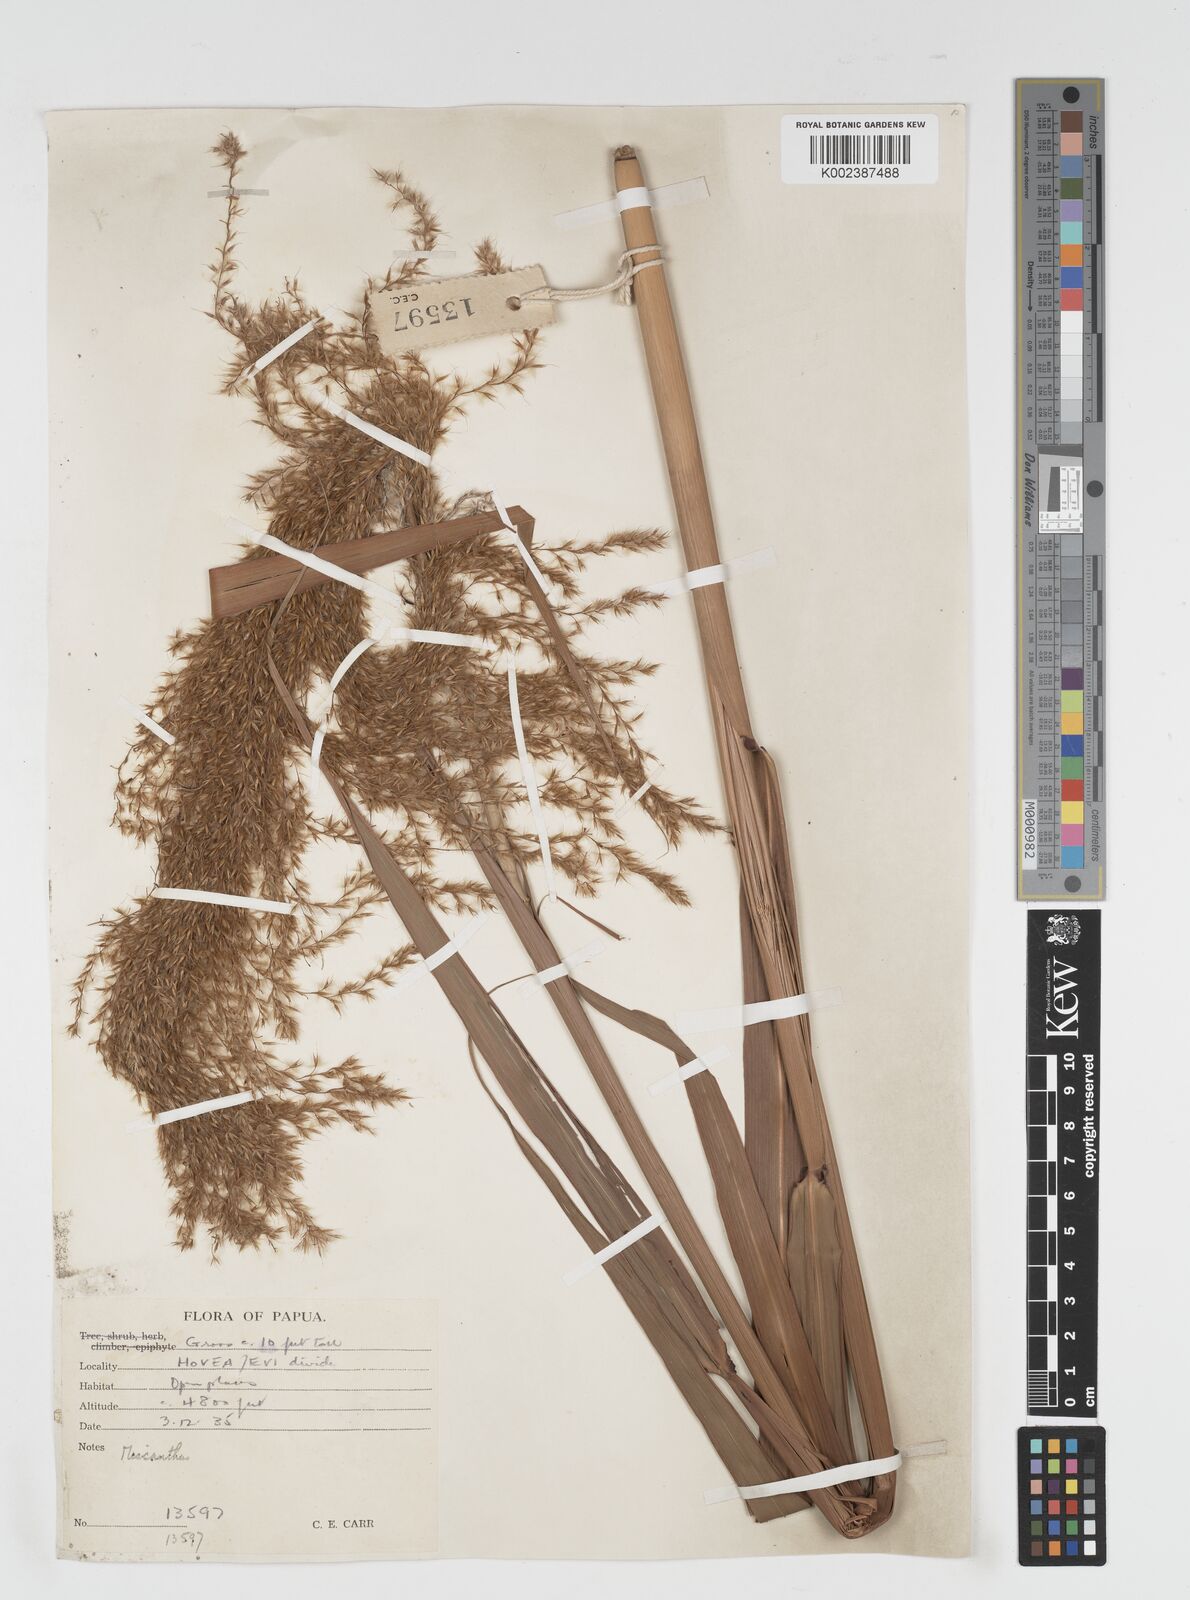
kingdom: Plantae
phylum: Tracheophyta
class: Liliopsida
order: Poales
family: Poaceae
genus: Miscanthus
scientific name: Miscanthus floridulus
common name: Pacific island silvergrass
